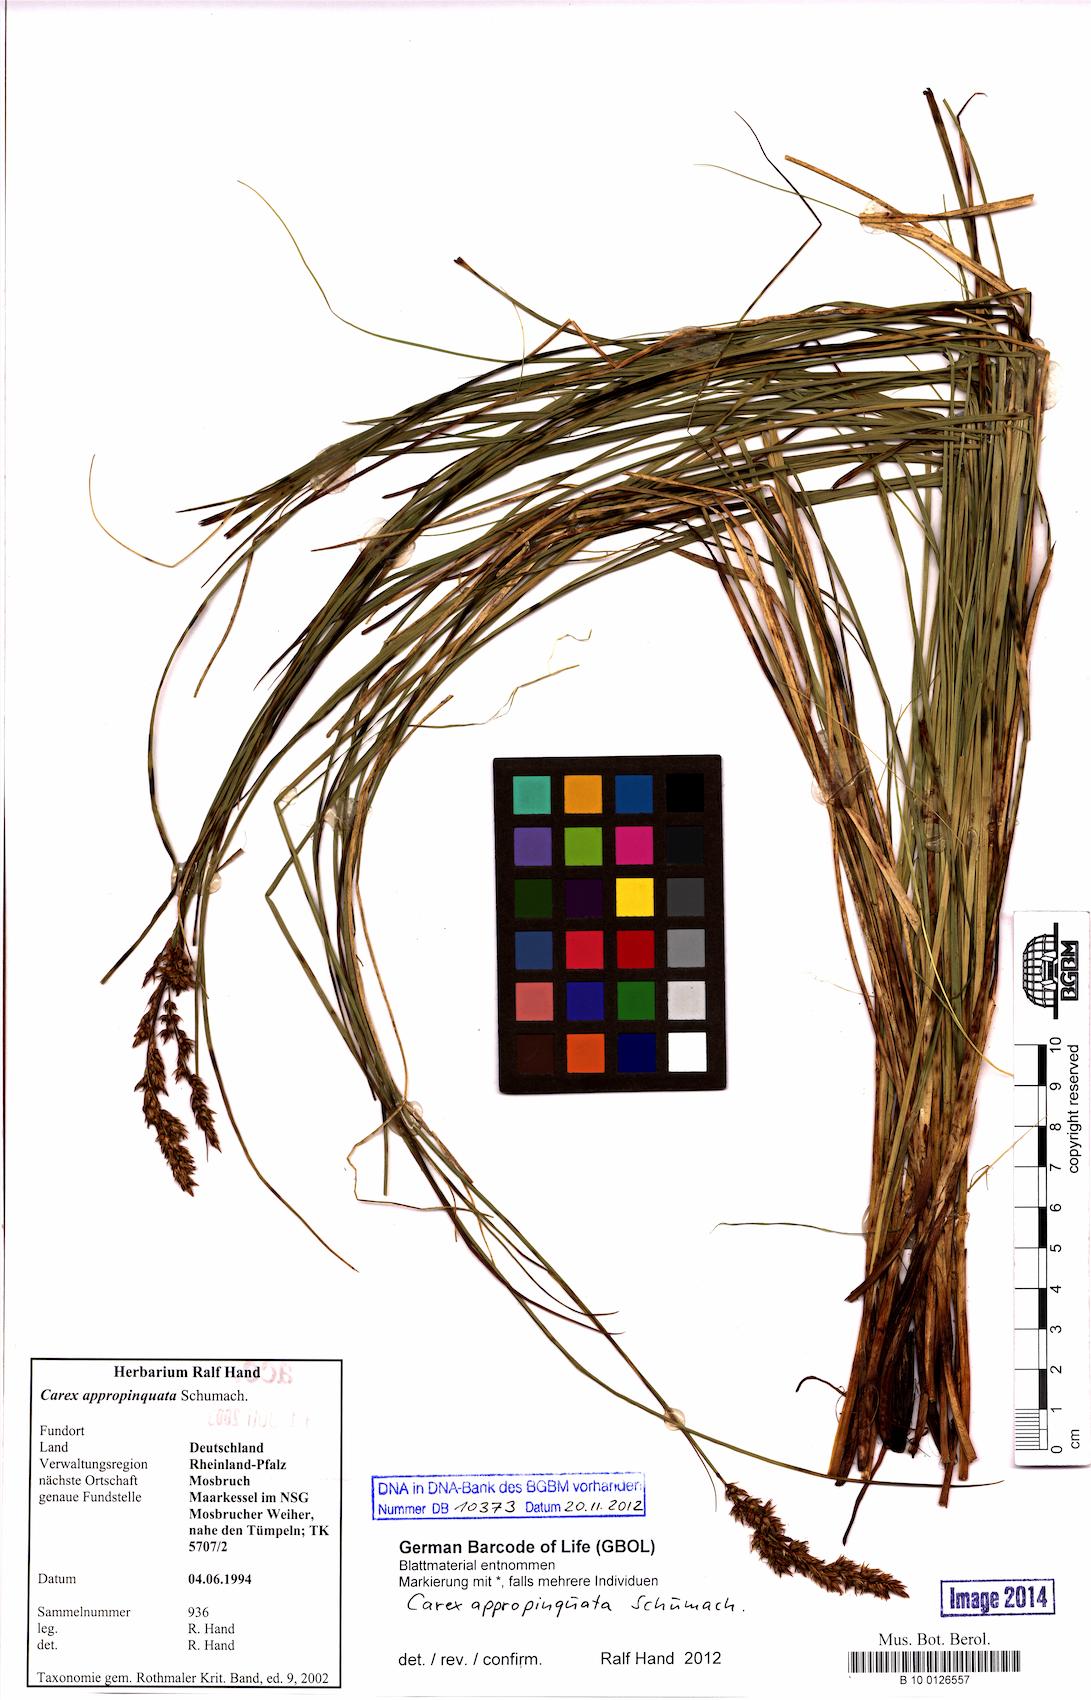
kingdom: Plantae
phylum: Tracheophyta
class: Liliopsida
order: Poales
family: Cyperaceae
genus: Carex
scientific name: Carex appropinquata
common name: Fibrous tussock-sedge
